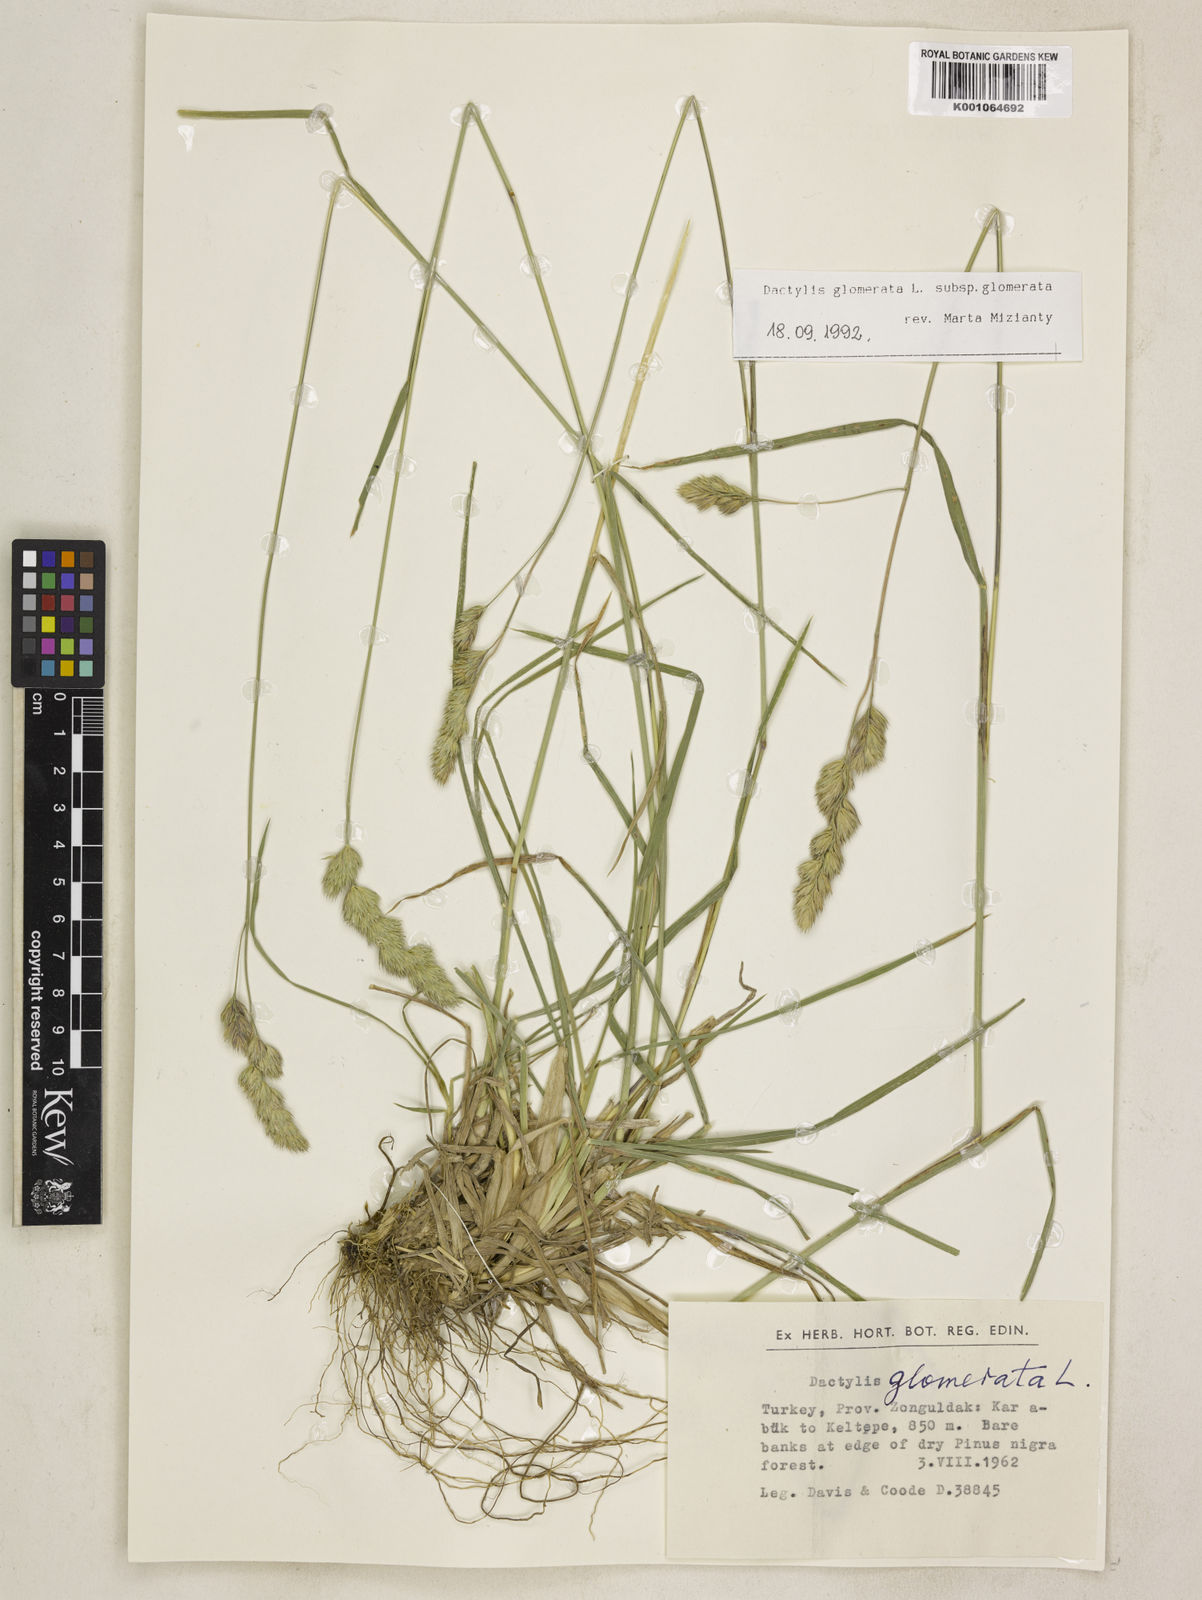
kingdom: Plantae
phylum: Tracheophyta
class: Liliopsida
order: Poales
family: Poaceae
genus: Dactylis
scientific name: Dactylis glomerata
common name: Orchardgrass
